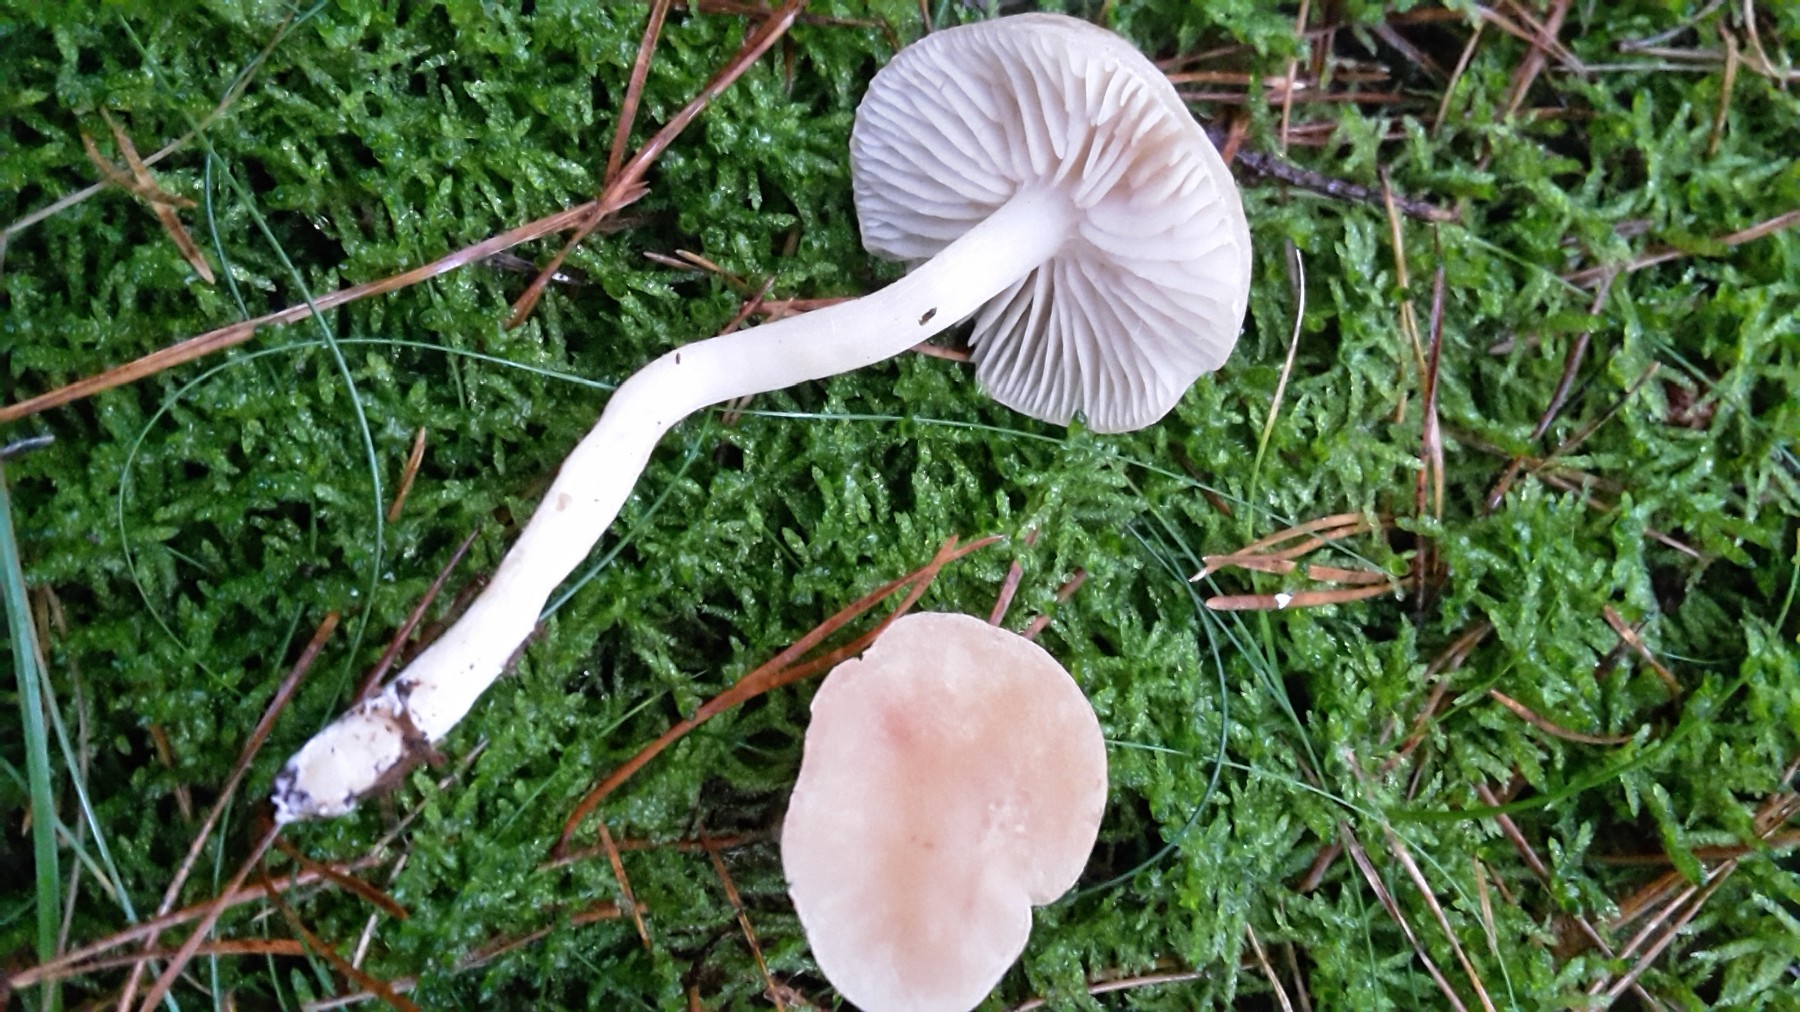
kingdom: Fungi
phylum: Basidiomycota
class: Agaricomycetes
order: Agaricales
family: Tricholomataceae
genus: Tricholoma
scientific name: Tricholoma inamoenum
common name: højstokket ridderhat
